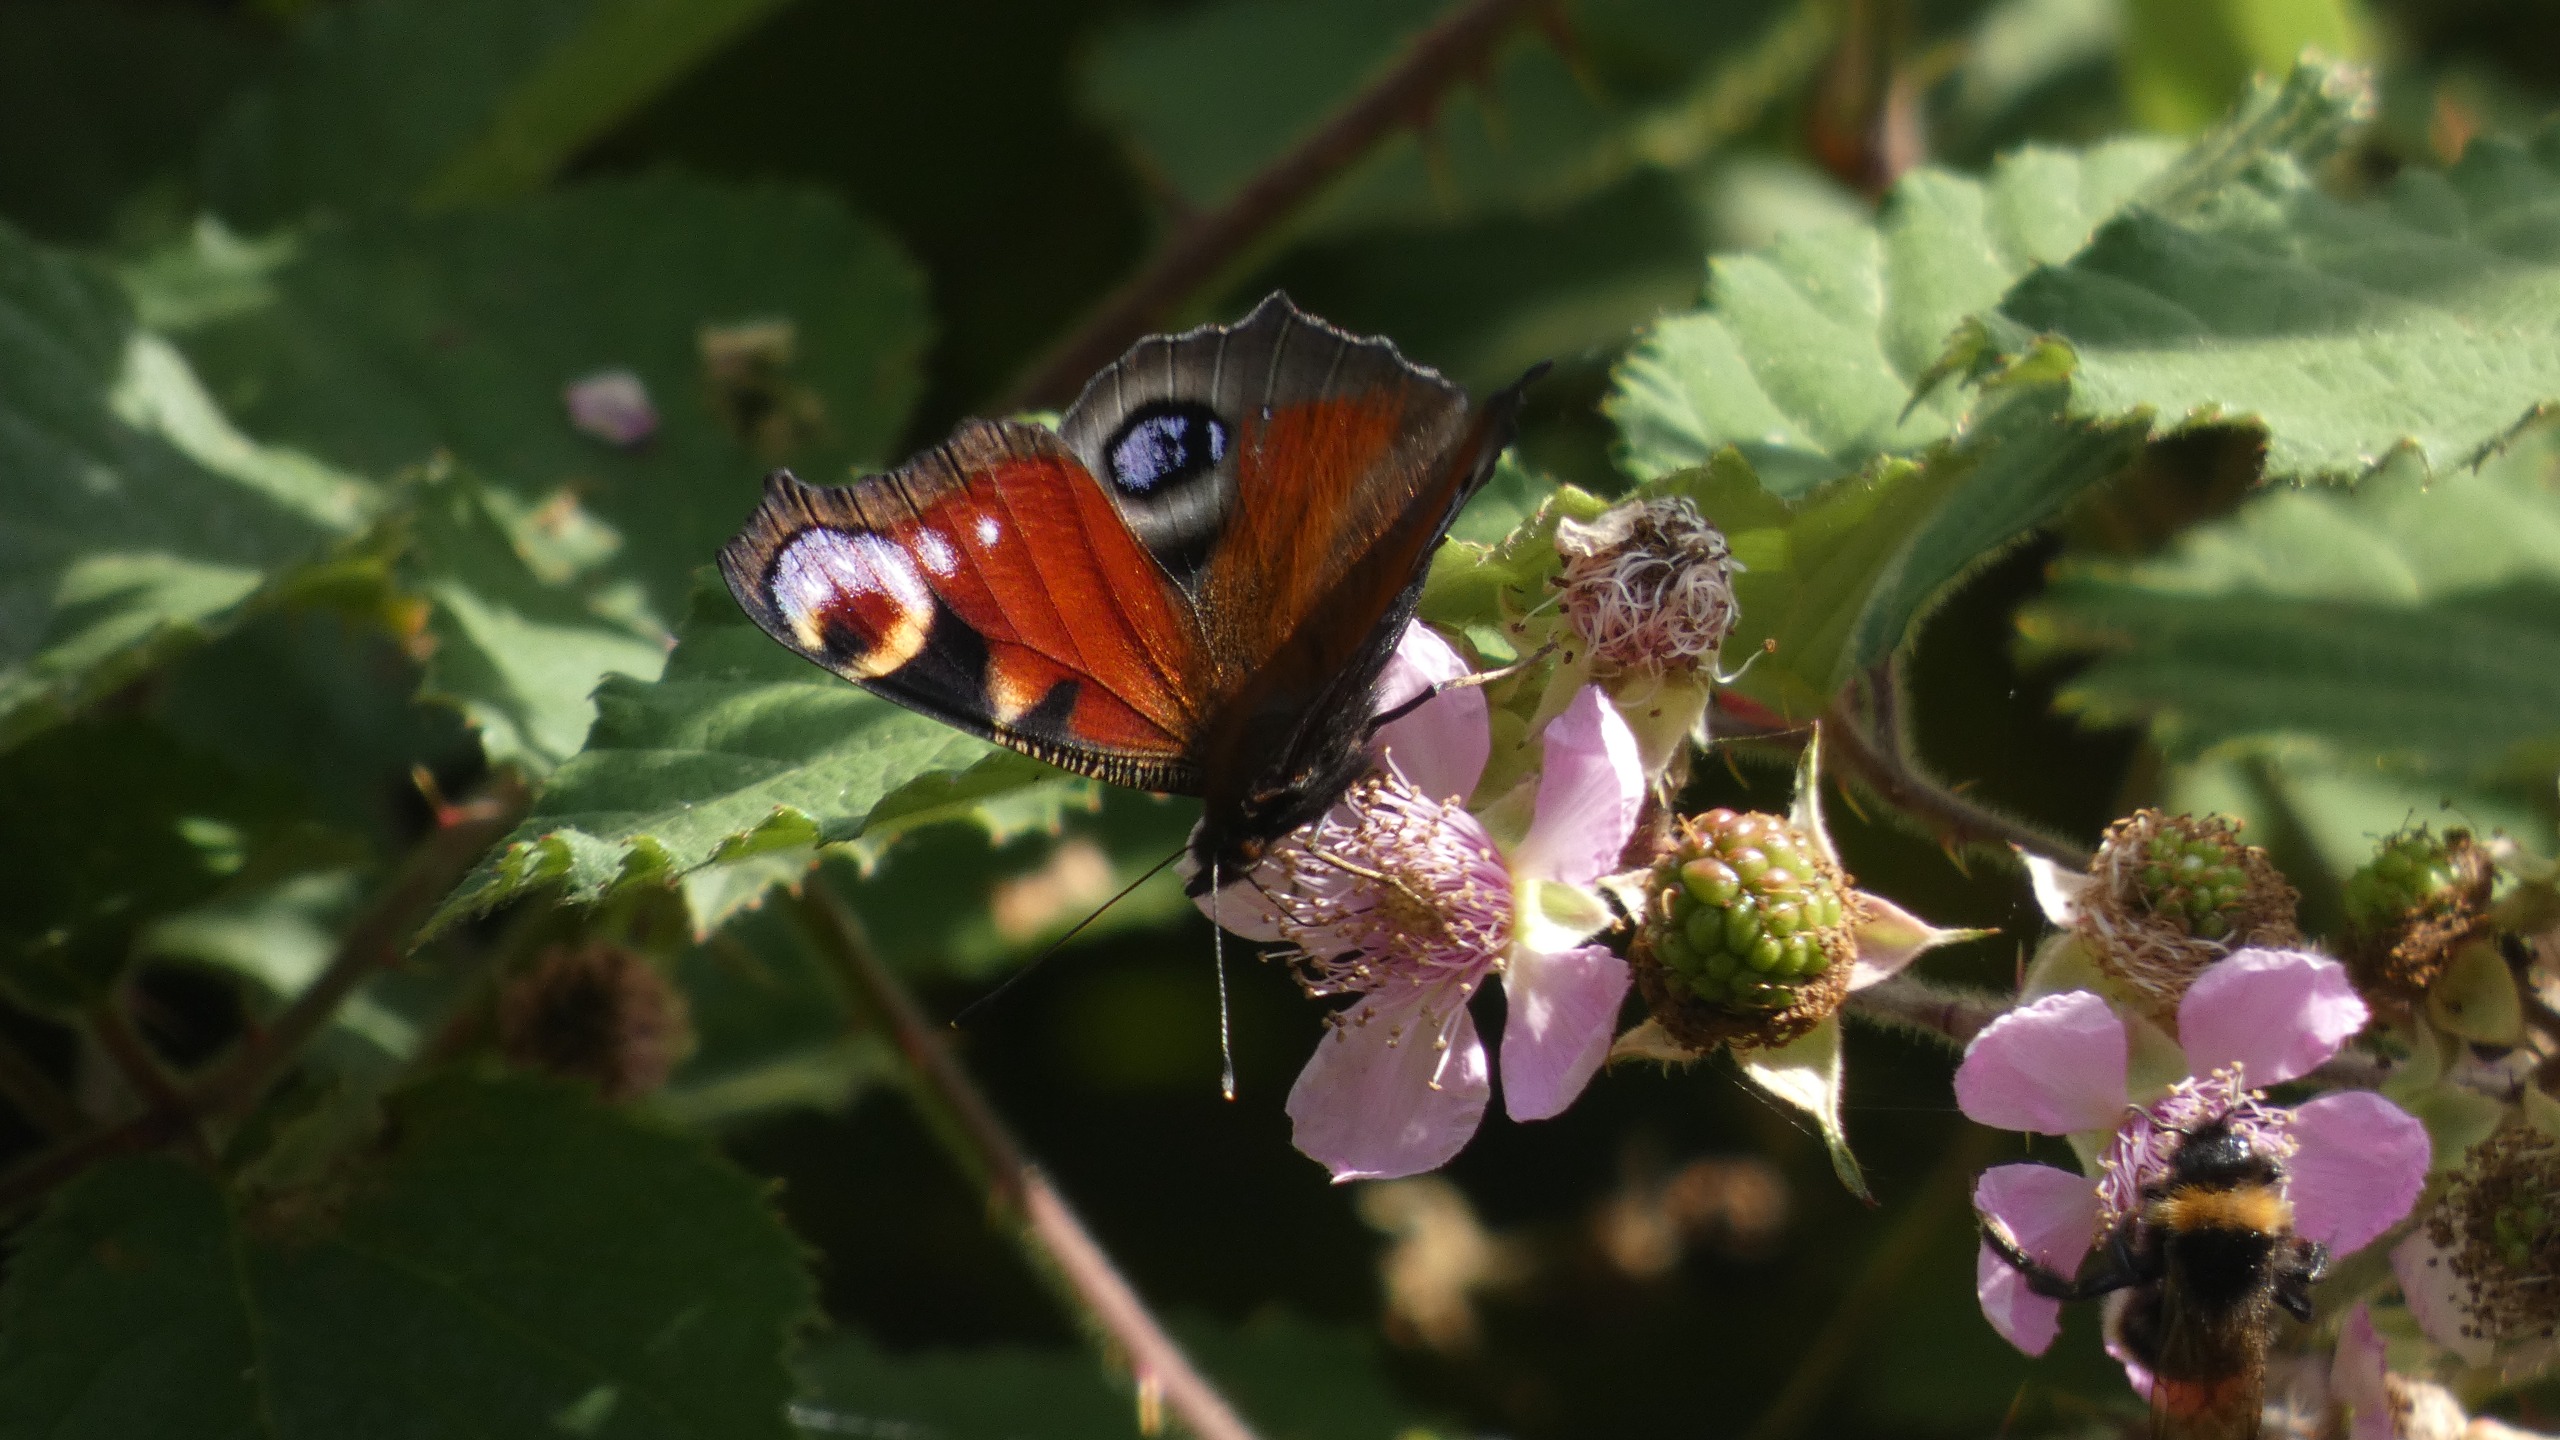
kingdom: Animalia
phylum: Arthropoda
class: Insecta
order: Lepidoptera
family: Nymphalidae
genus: Aglais
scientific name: Aglais io
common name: Dagpåfugleøje
